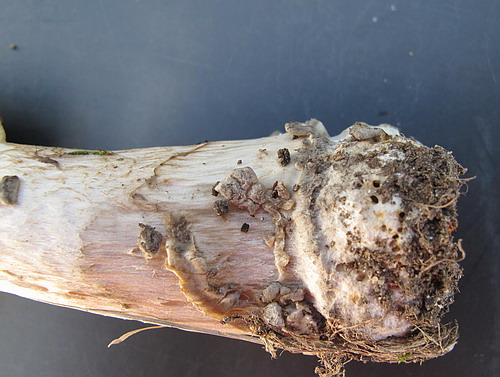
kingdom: Fungi
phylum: Basidiomycota
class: Agaricomycetes
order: Agaricales
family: Amanitaceae
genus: Amanita
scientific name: Amanita ceciliae
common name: stor kam-fluesvamp
